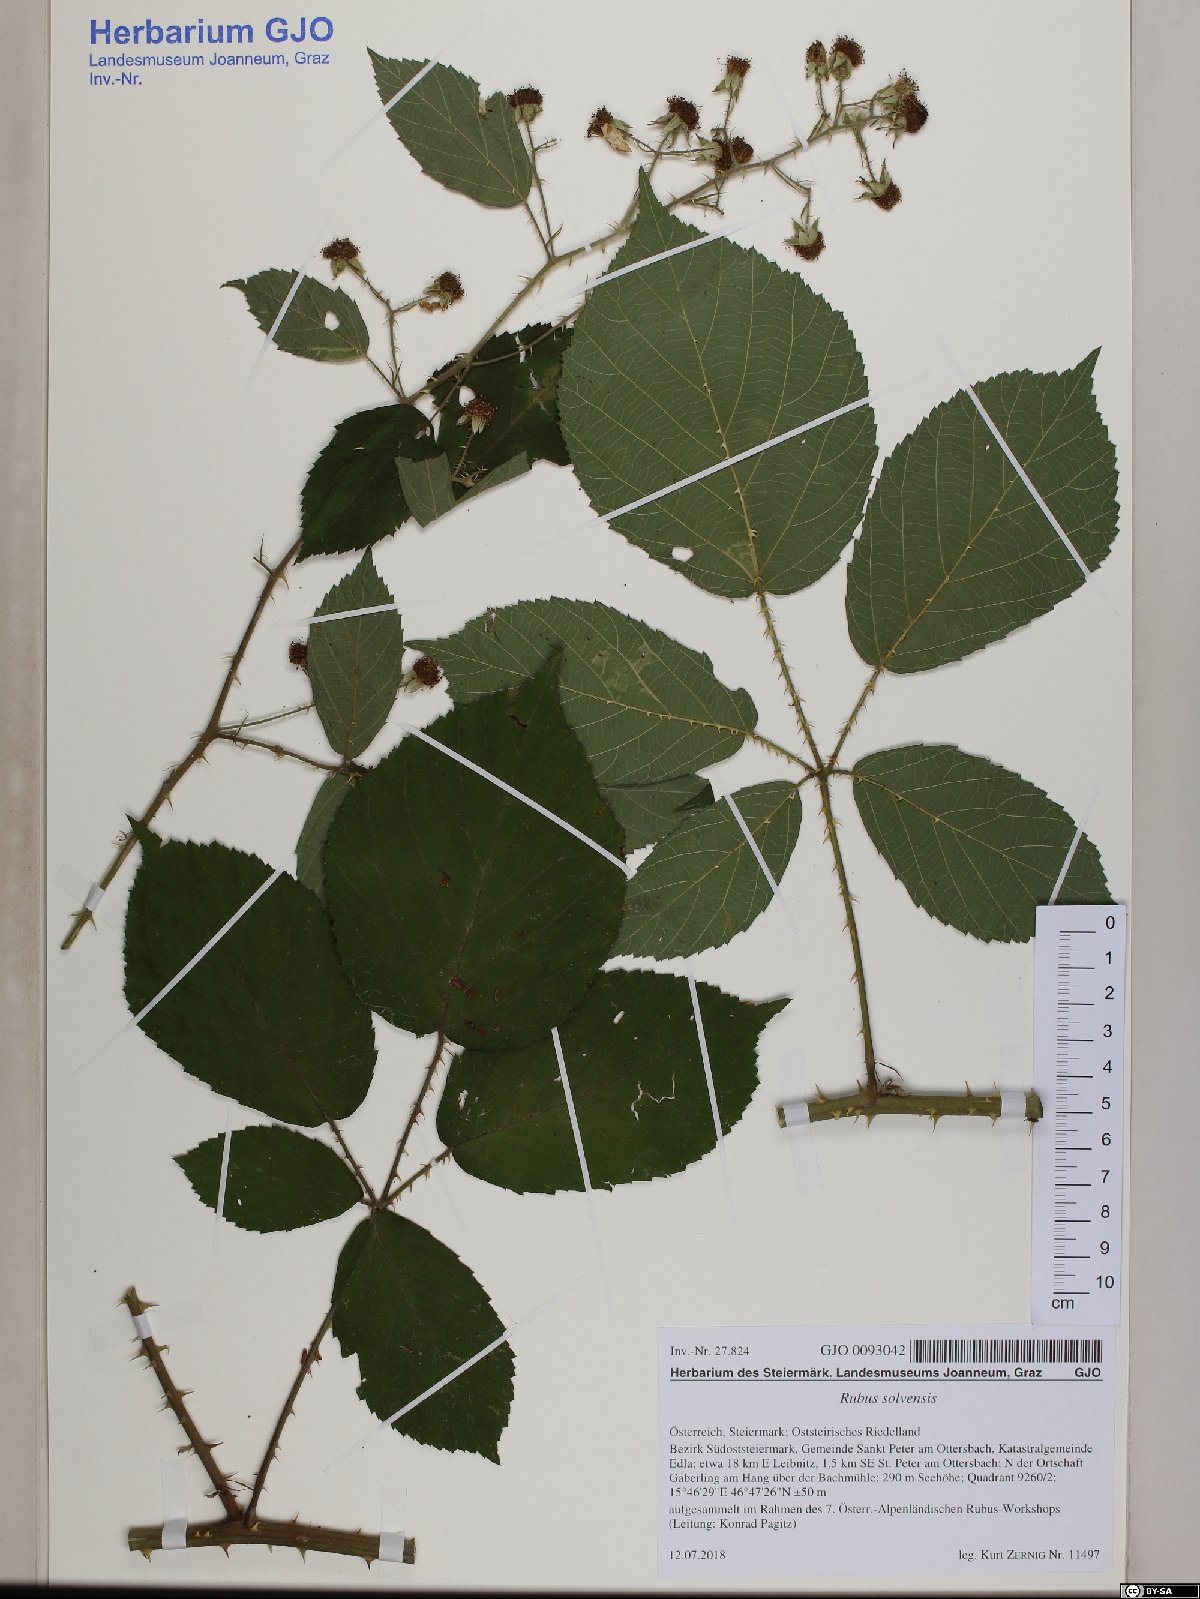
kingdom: Plantae
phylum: Tracheophyta
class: Magnoliopsida
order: Rosales
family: Rosaceae
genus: Rubus
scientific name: Rubus solvensis
